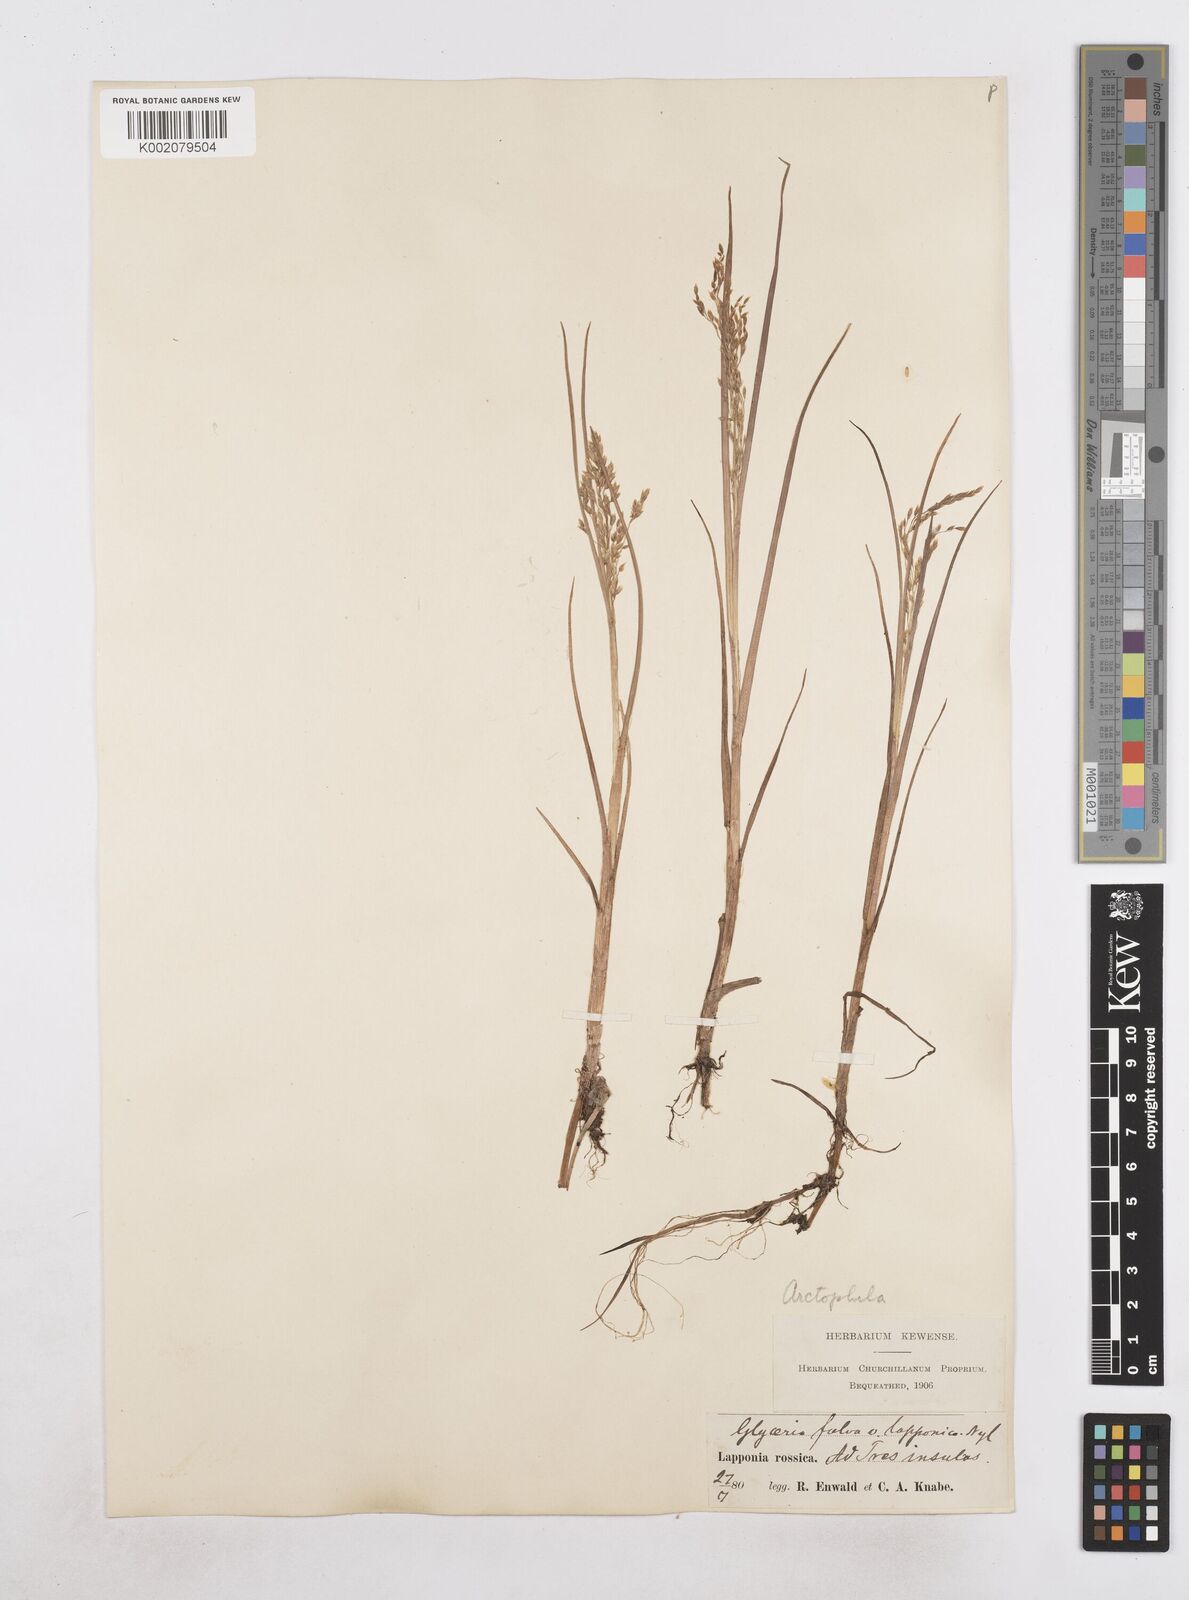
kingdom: Plantae
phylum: Tracheophyta
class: Liliopsida
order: Poales
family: Poaceae
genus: Dupontia
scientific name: Dupontia fulva
